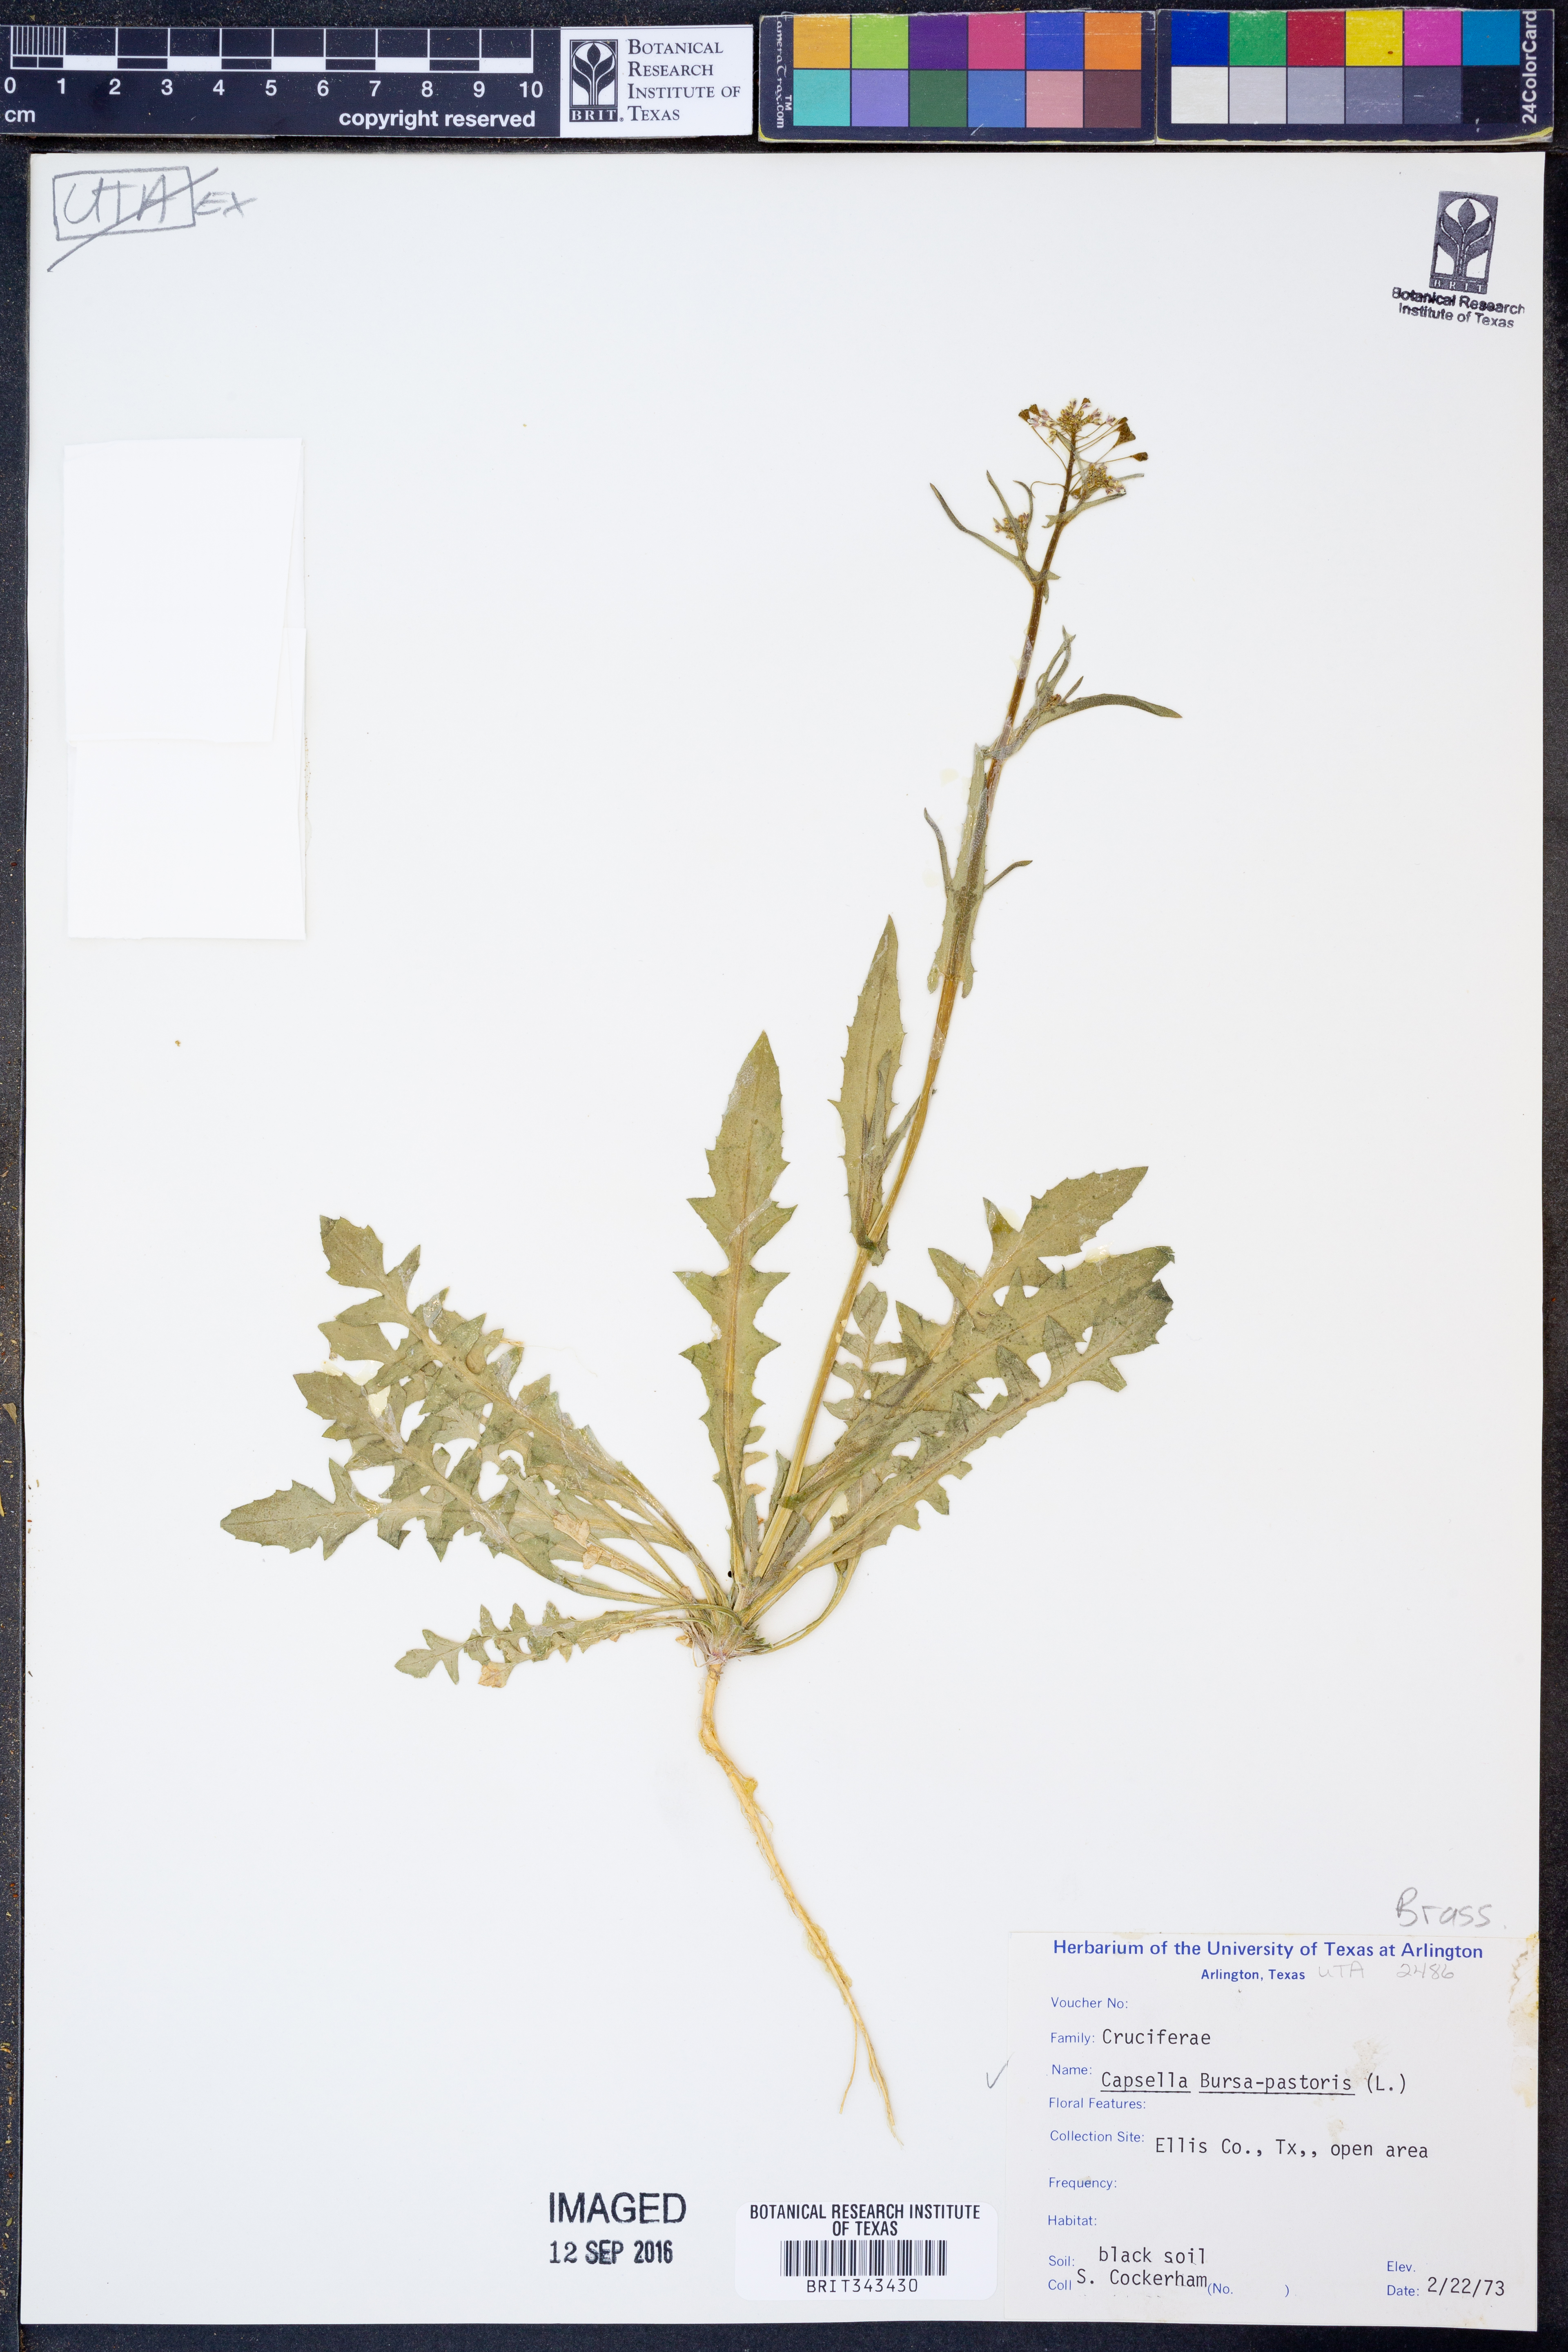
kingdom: Plantae
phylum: Tracheophyta
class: Magnoliopsida
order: Brassicales
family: Brassicaceae
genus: Capsella
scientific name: Capsella bursa-pastoris
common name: Shepherd's purse
